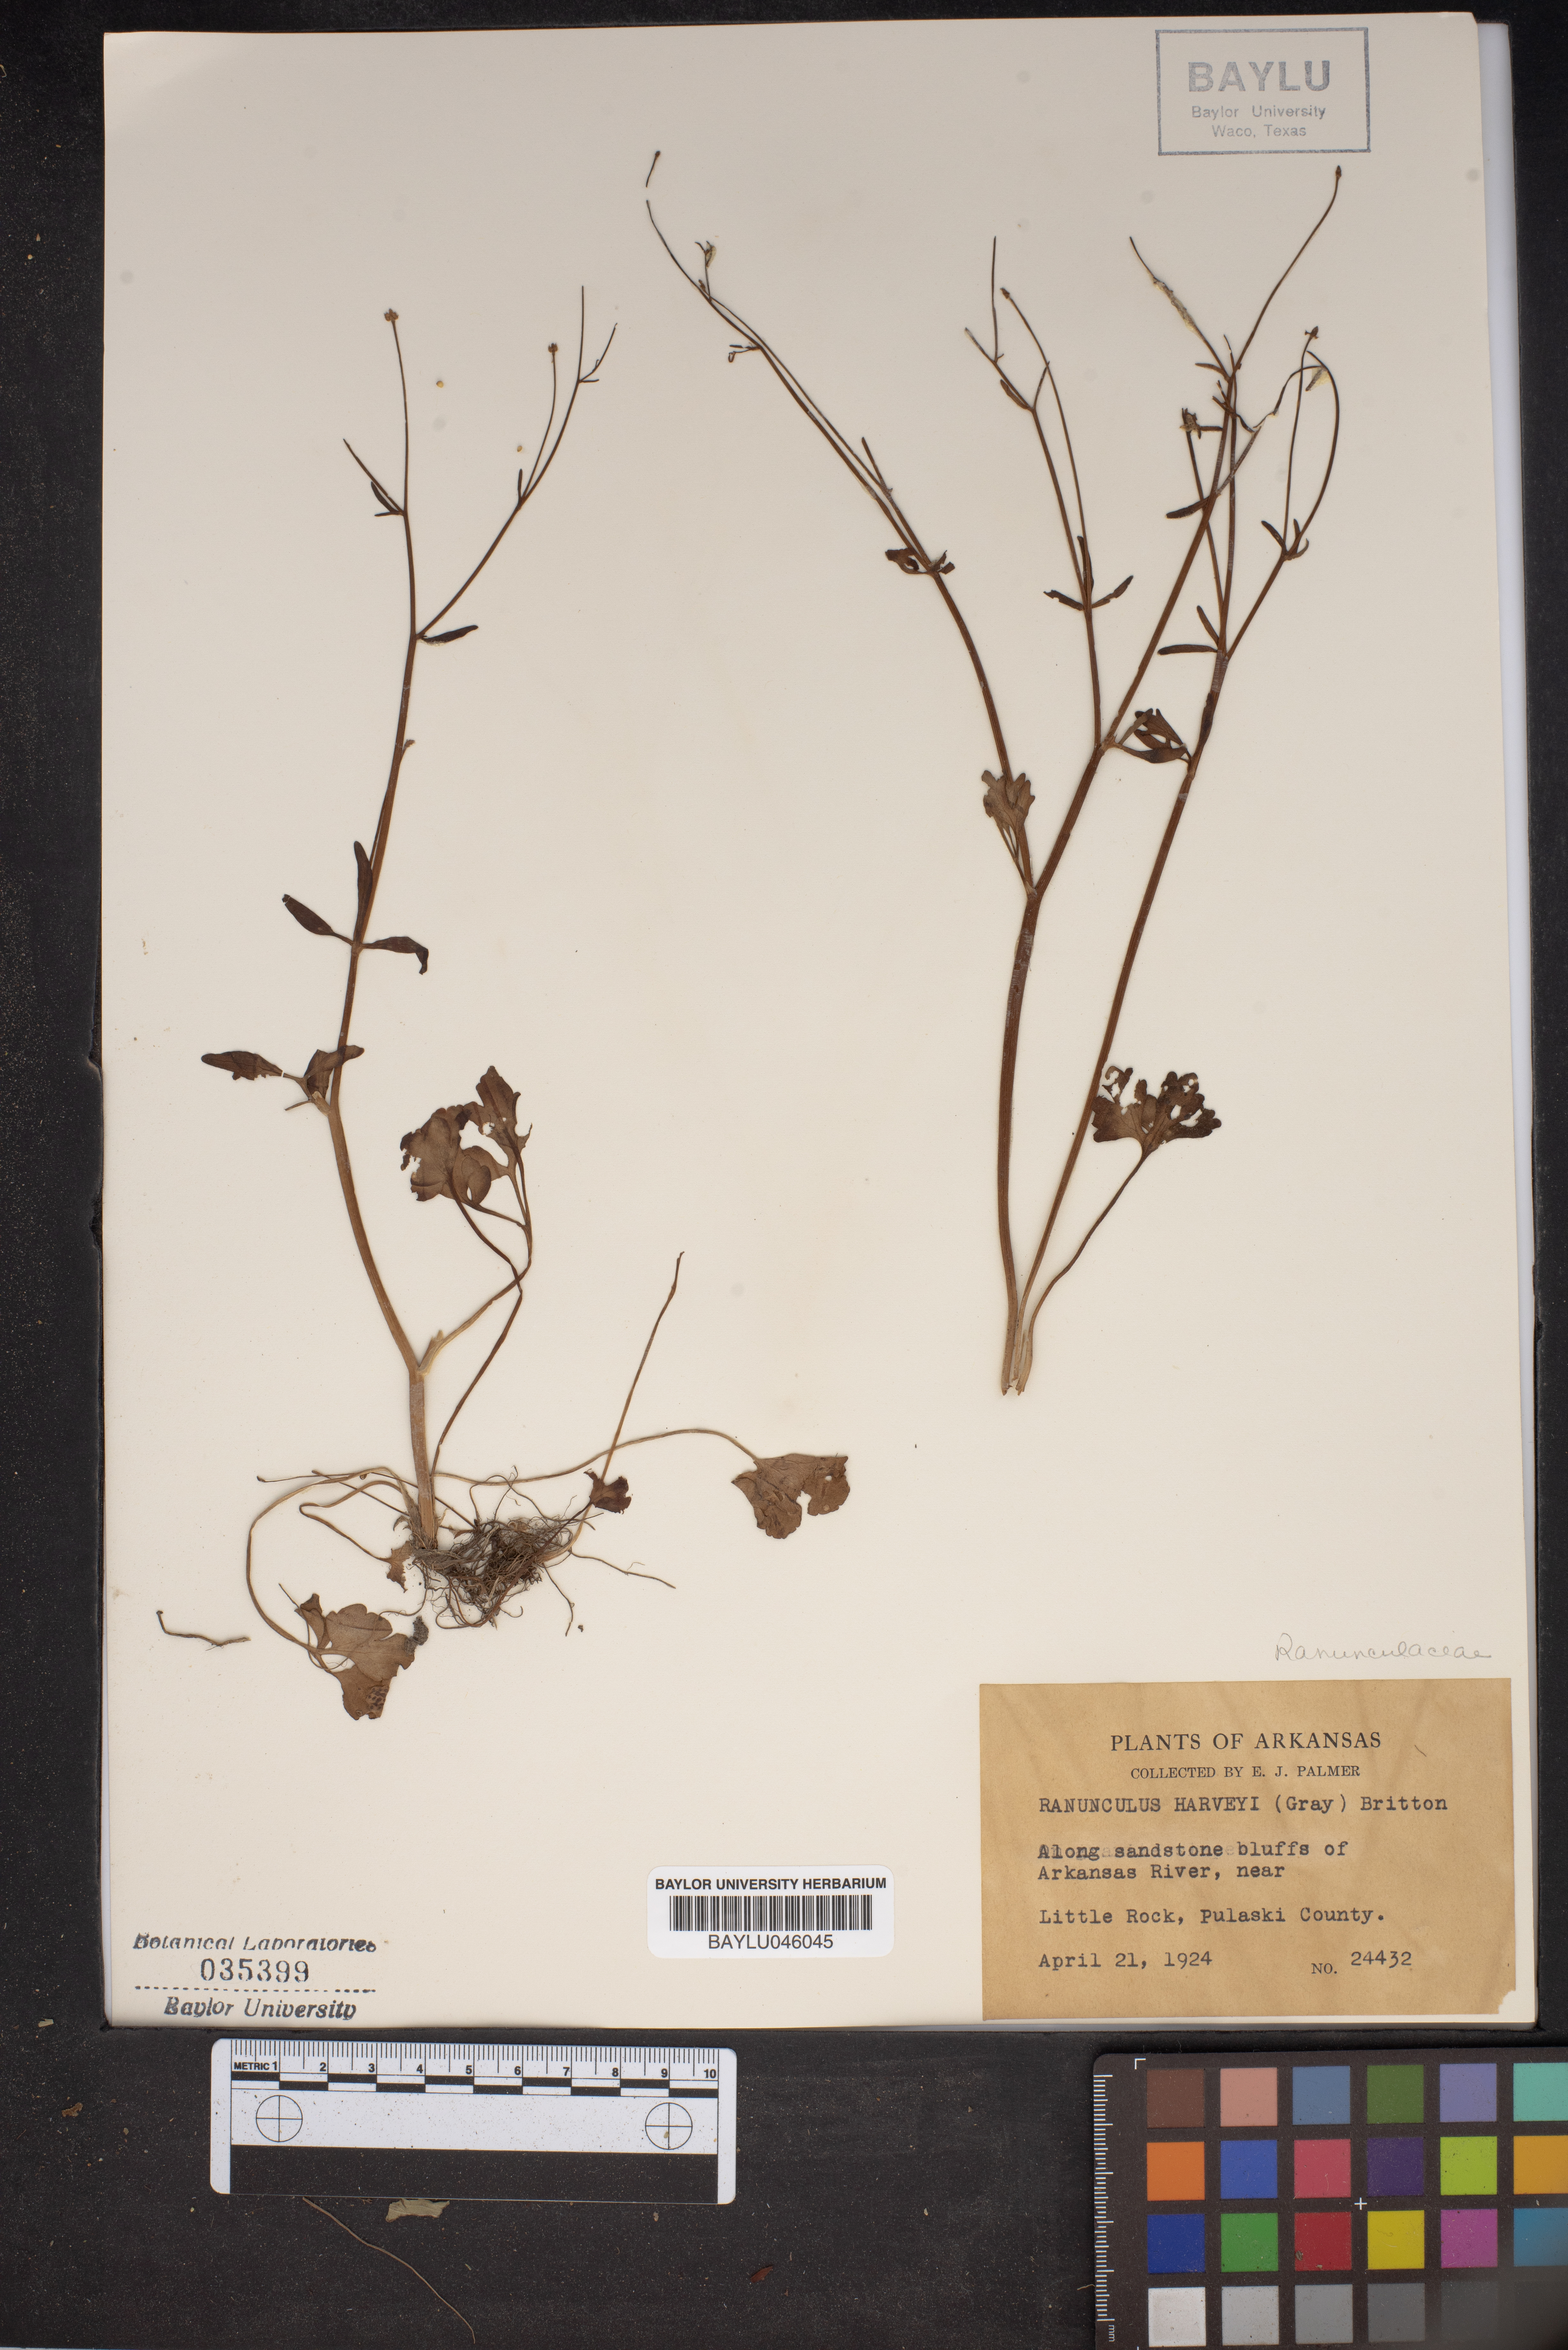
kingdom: Plantae
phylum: Tracheophyta
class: Magnoliopsida
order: Ranunculales
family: Ranunculaceae
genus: Ranunculus
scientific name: Ranunculus harveyi
